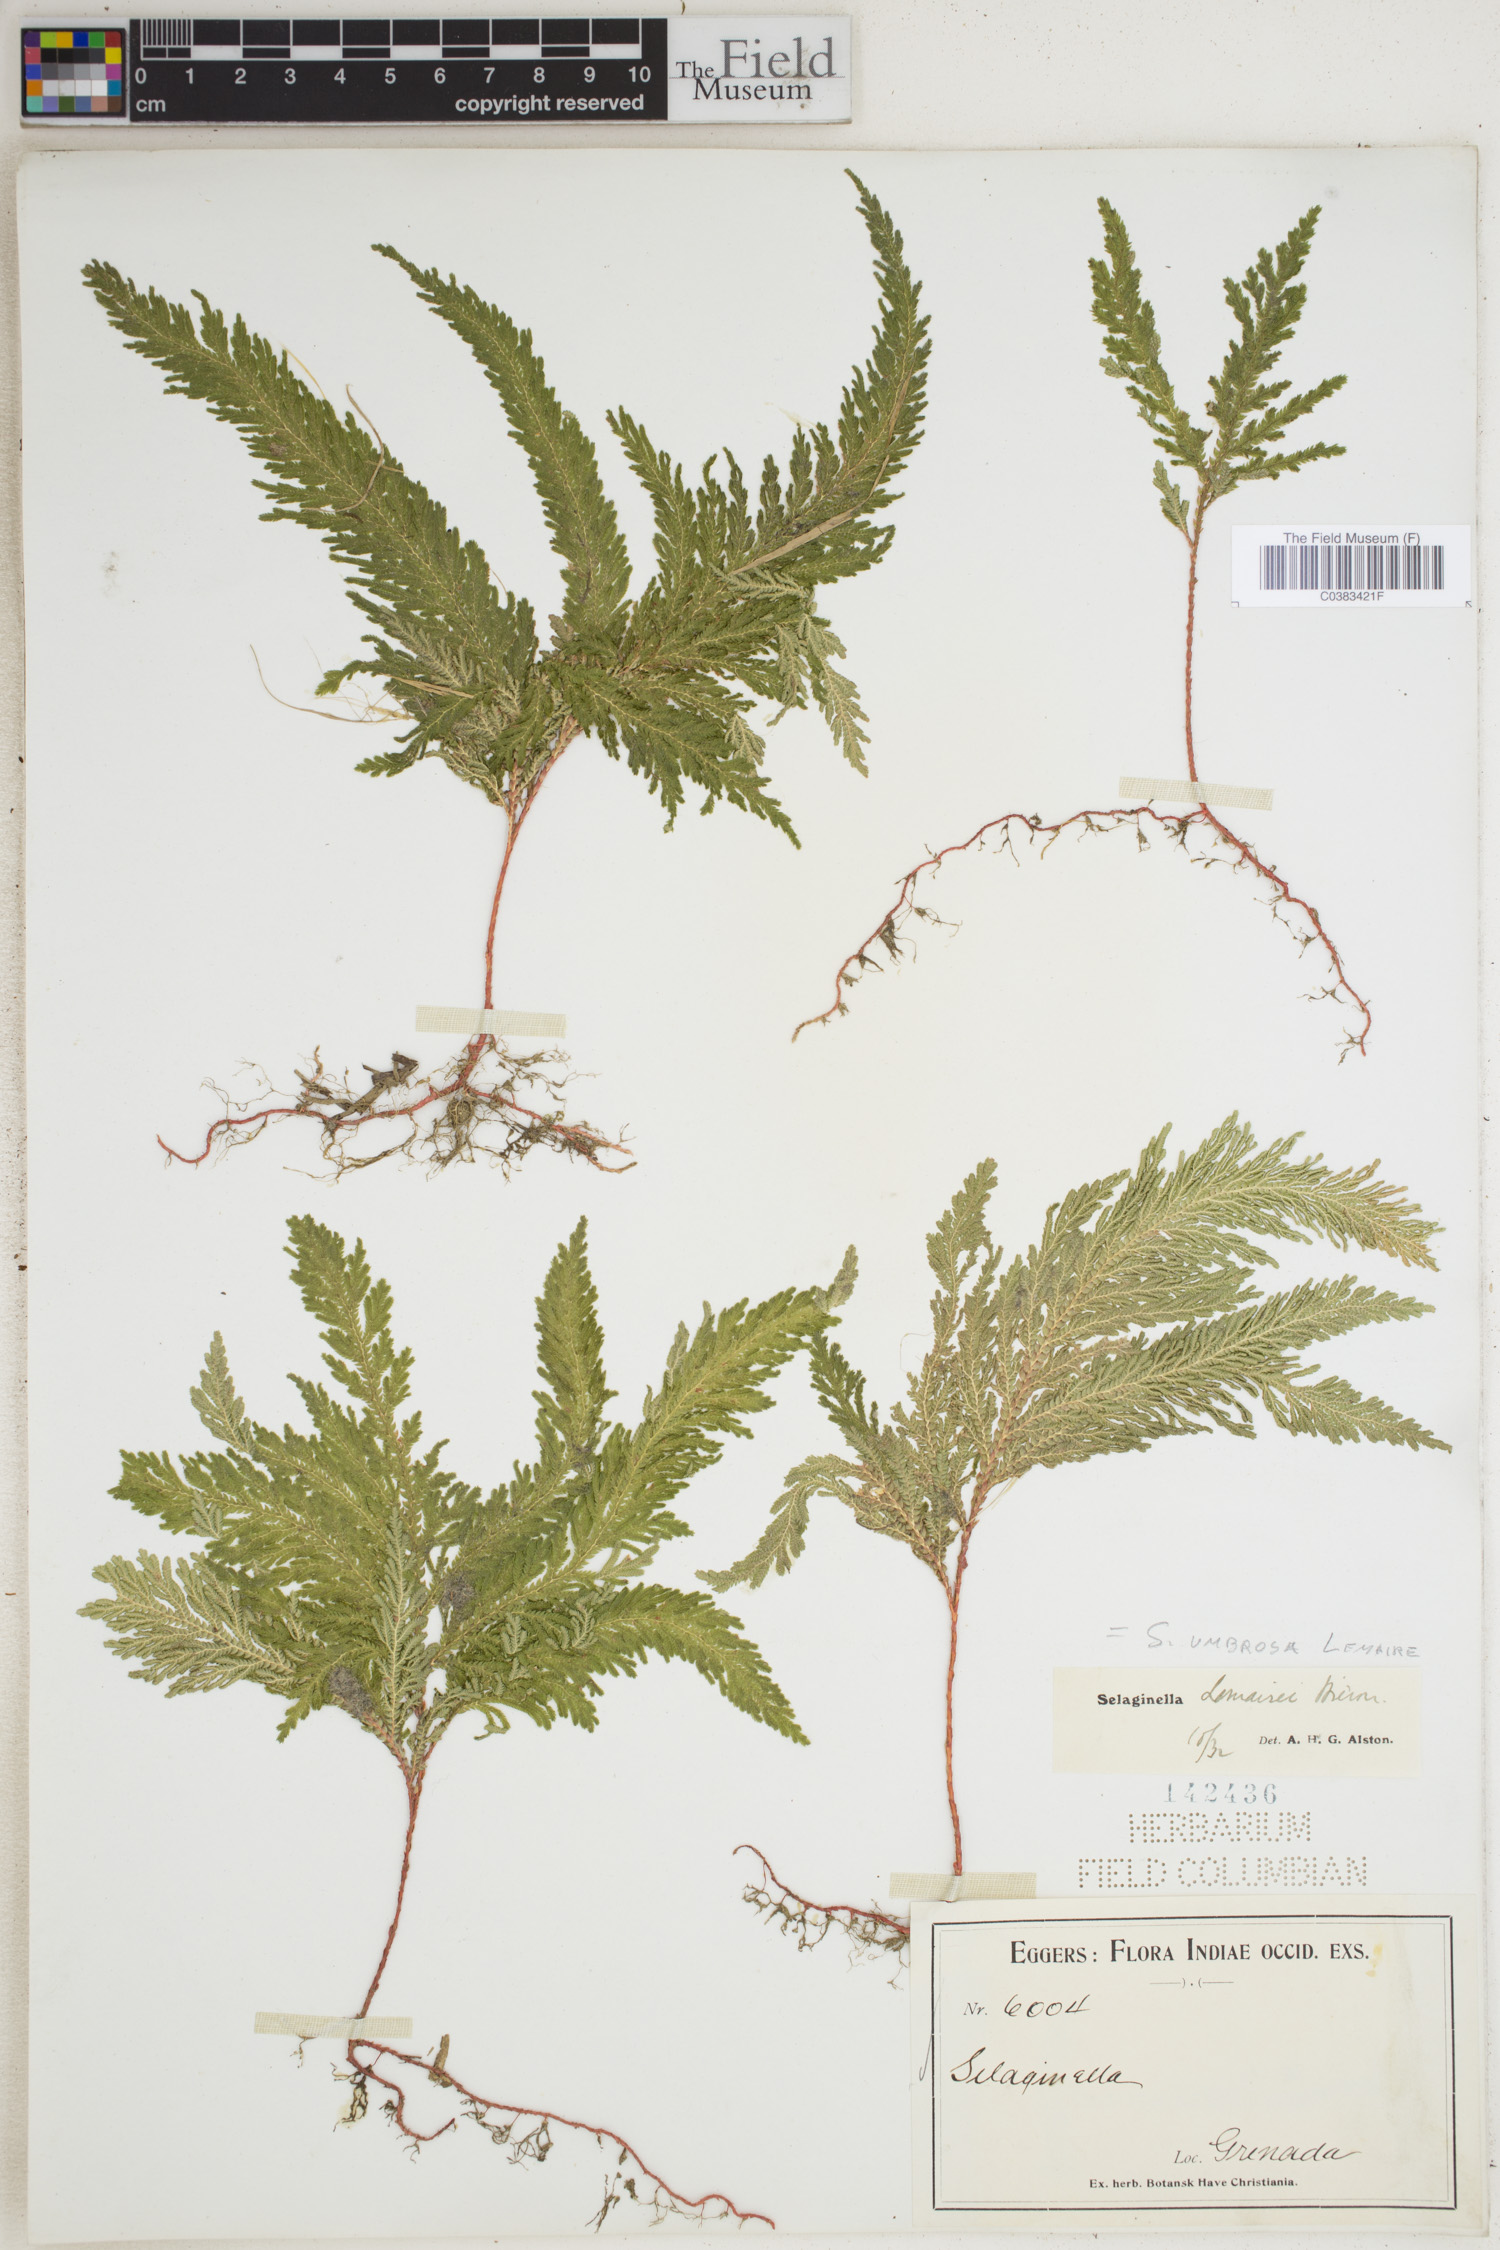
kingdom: Plantae
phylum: Tracheophyta
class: Lycopodiopsida
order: Selaginellales
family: Selaginellaceae
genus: Selaginella
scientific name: Selaginella umbrosa
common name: Spikemoss
